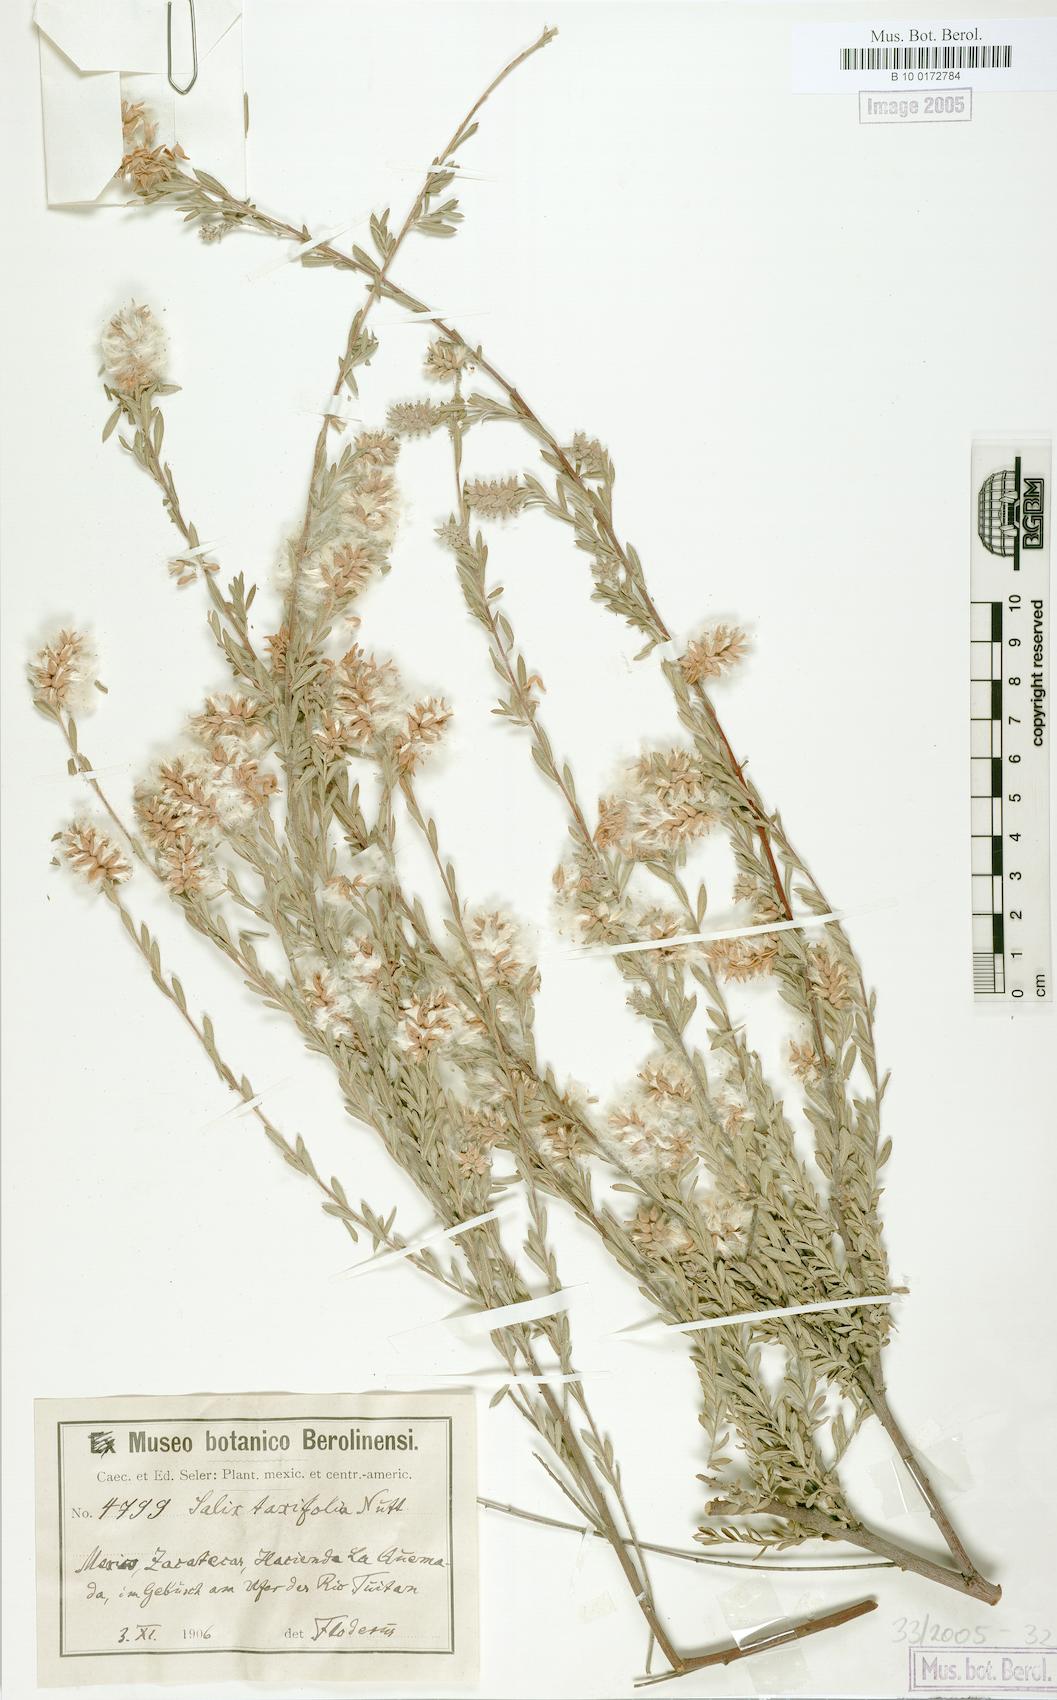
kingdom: Plantae
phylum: Tracheophyta
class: Magnoliopsida
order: Malpighiales
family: Salicaceae
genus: Salix
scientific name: Salix taxifolia
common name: Yew-leaf willow
